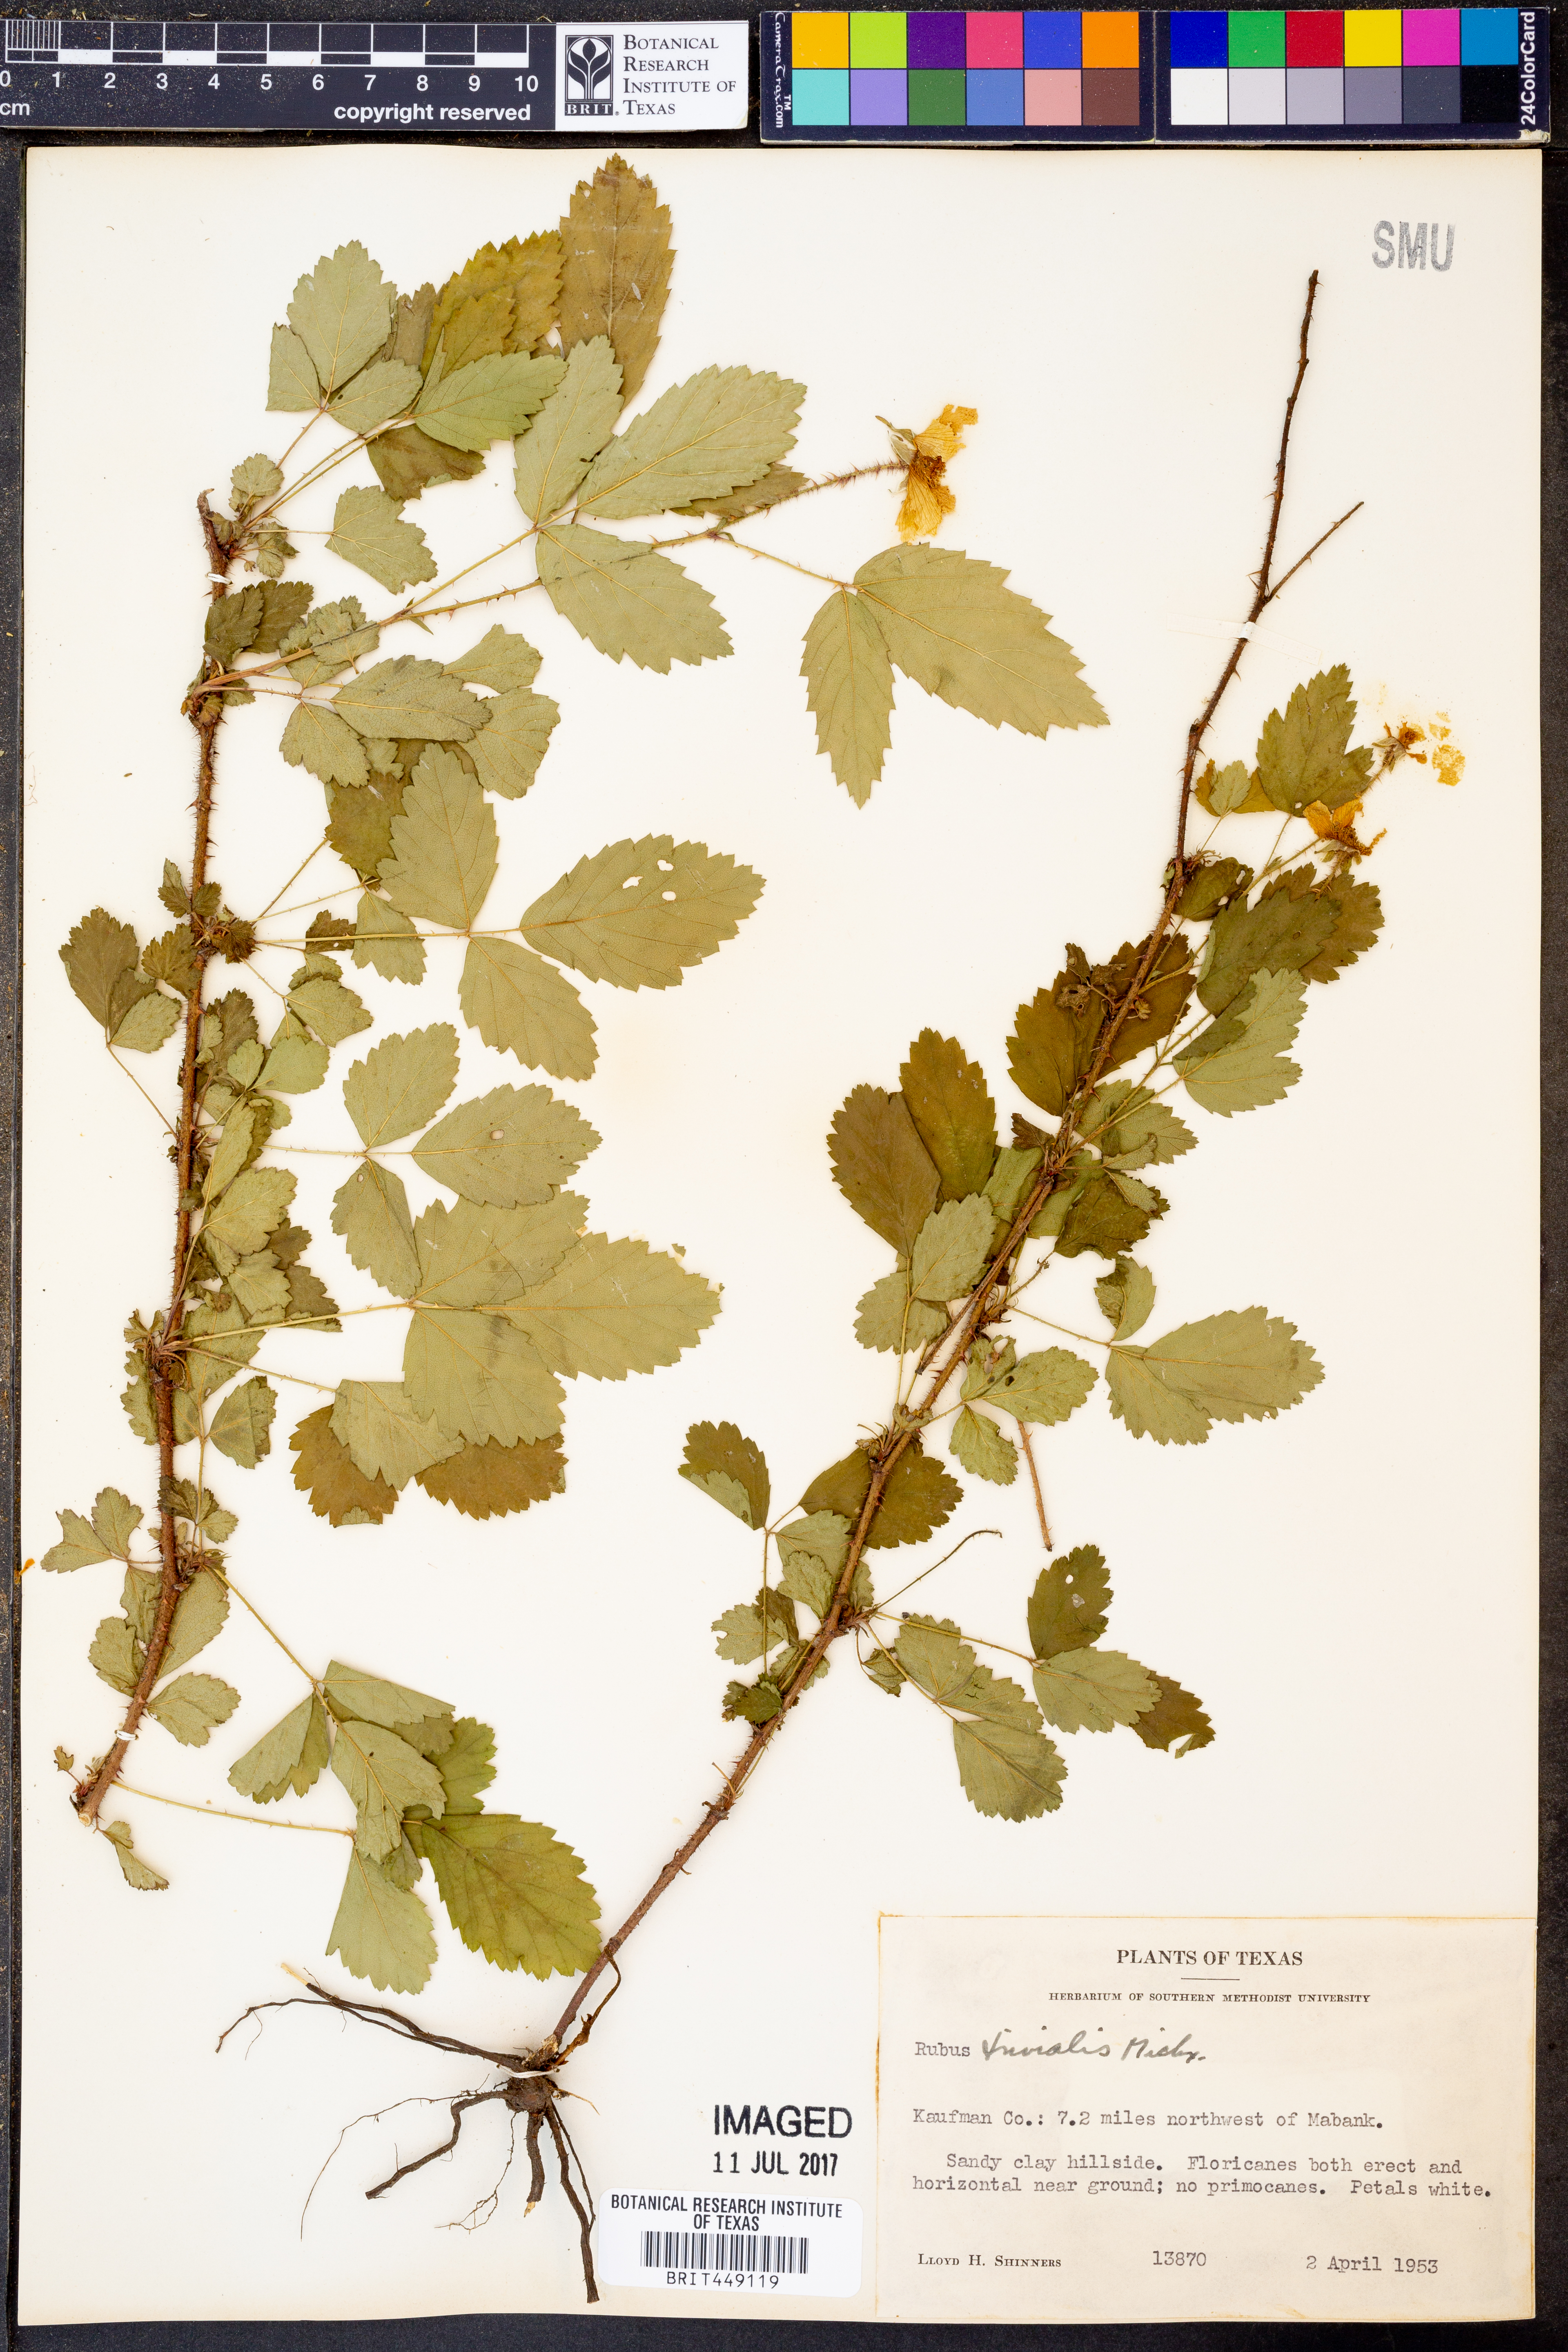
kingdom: Plantae
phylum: Tracheophyta
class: Magnoliopsida
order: Rosales
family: Rosaceae
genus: Rubus
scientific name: Rubus trivialis
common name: Southern dewberry
